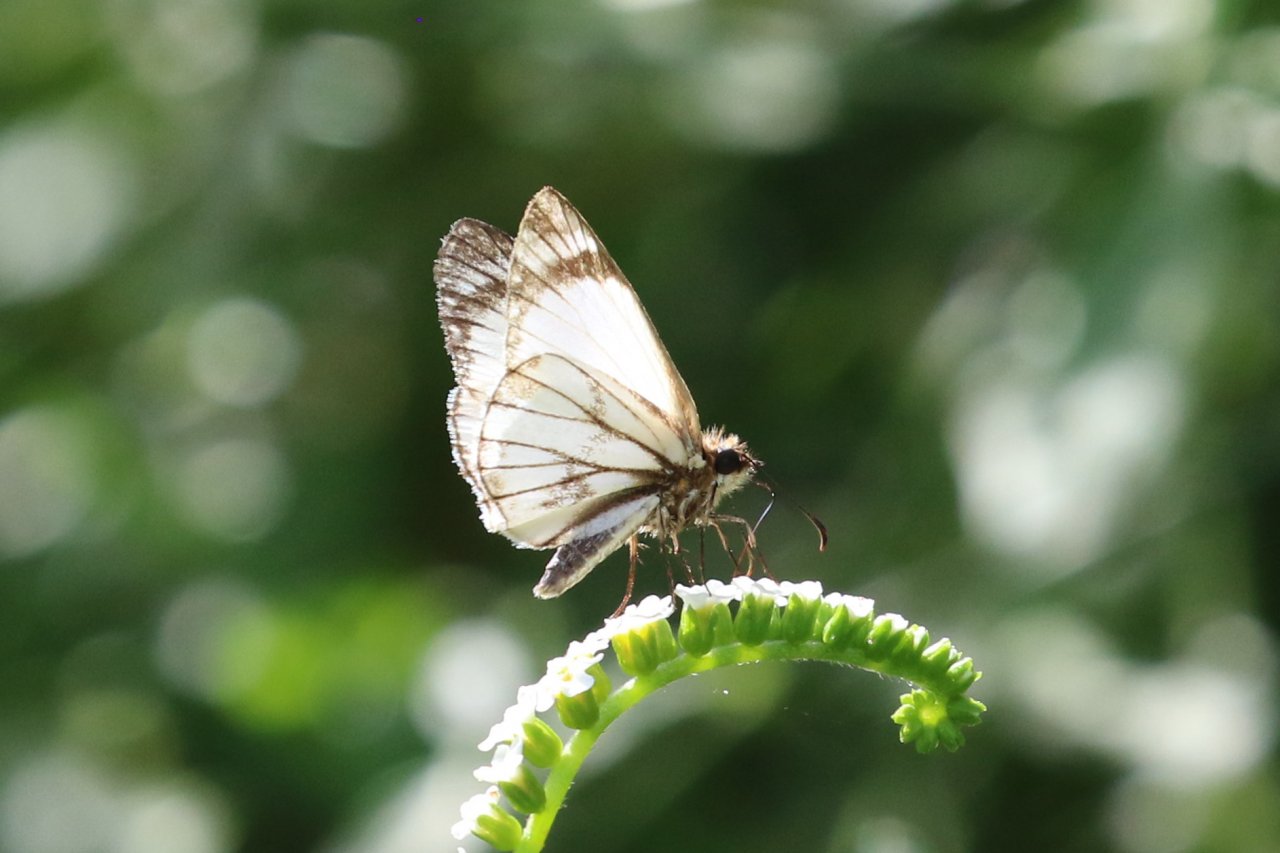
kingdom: Animalia
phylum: Arthropoda
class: Insecta
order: Lepidoptera
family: Hesperiidae
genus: Heliopetes
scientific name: Heliopetes alana
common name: Alana White-Skipper
